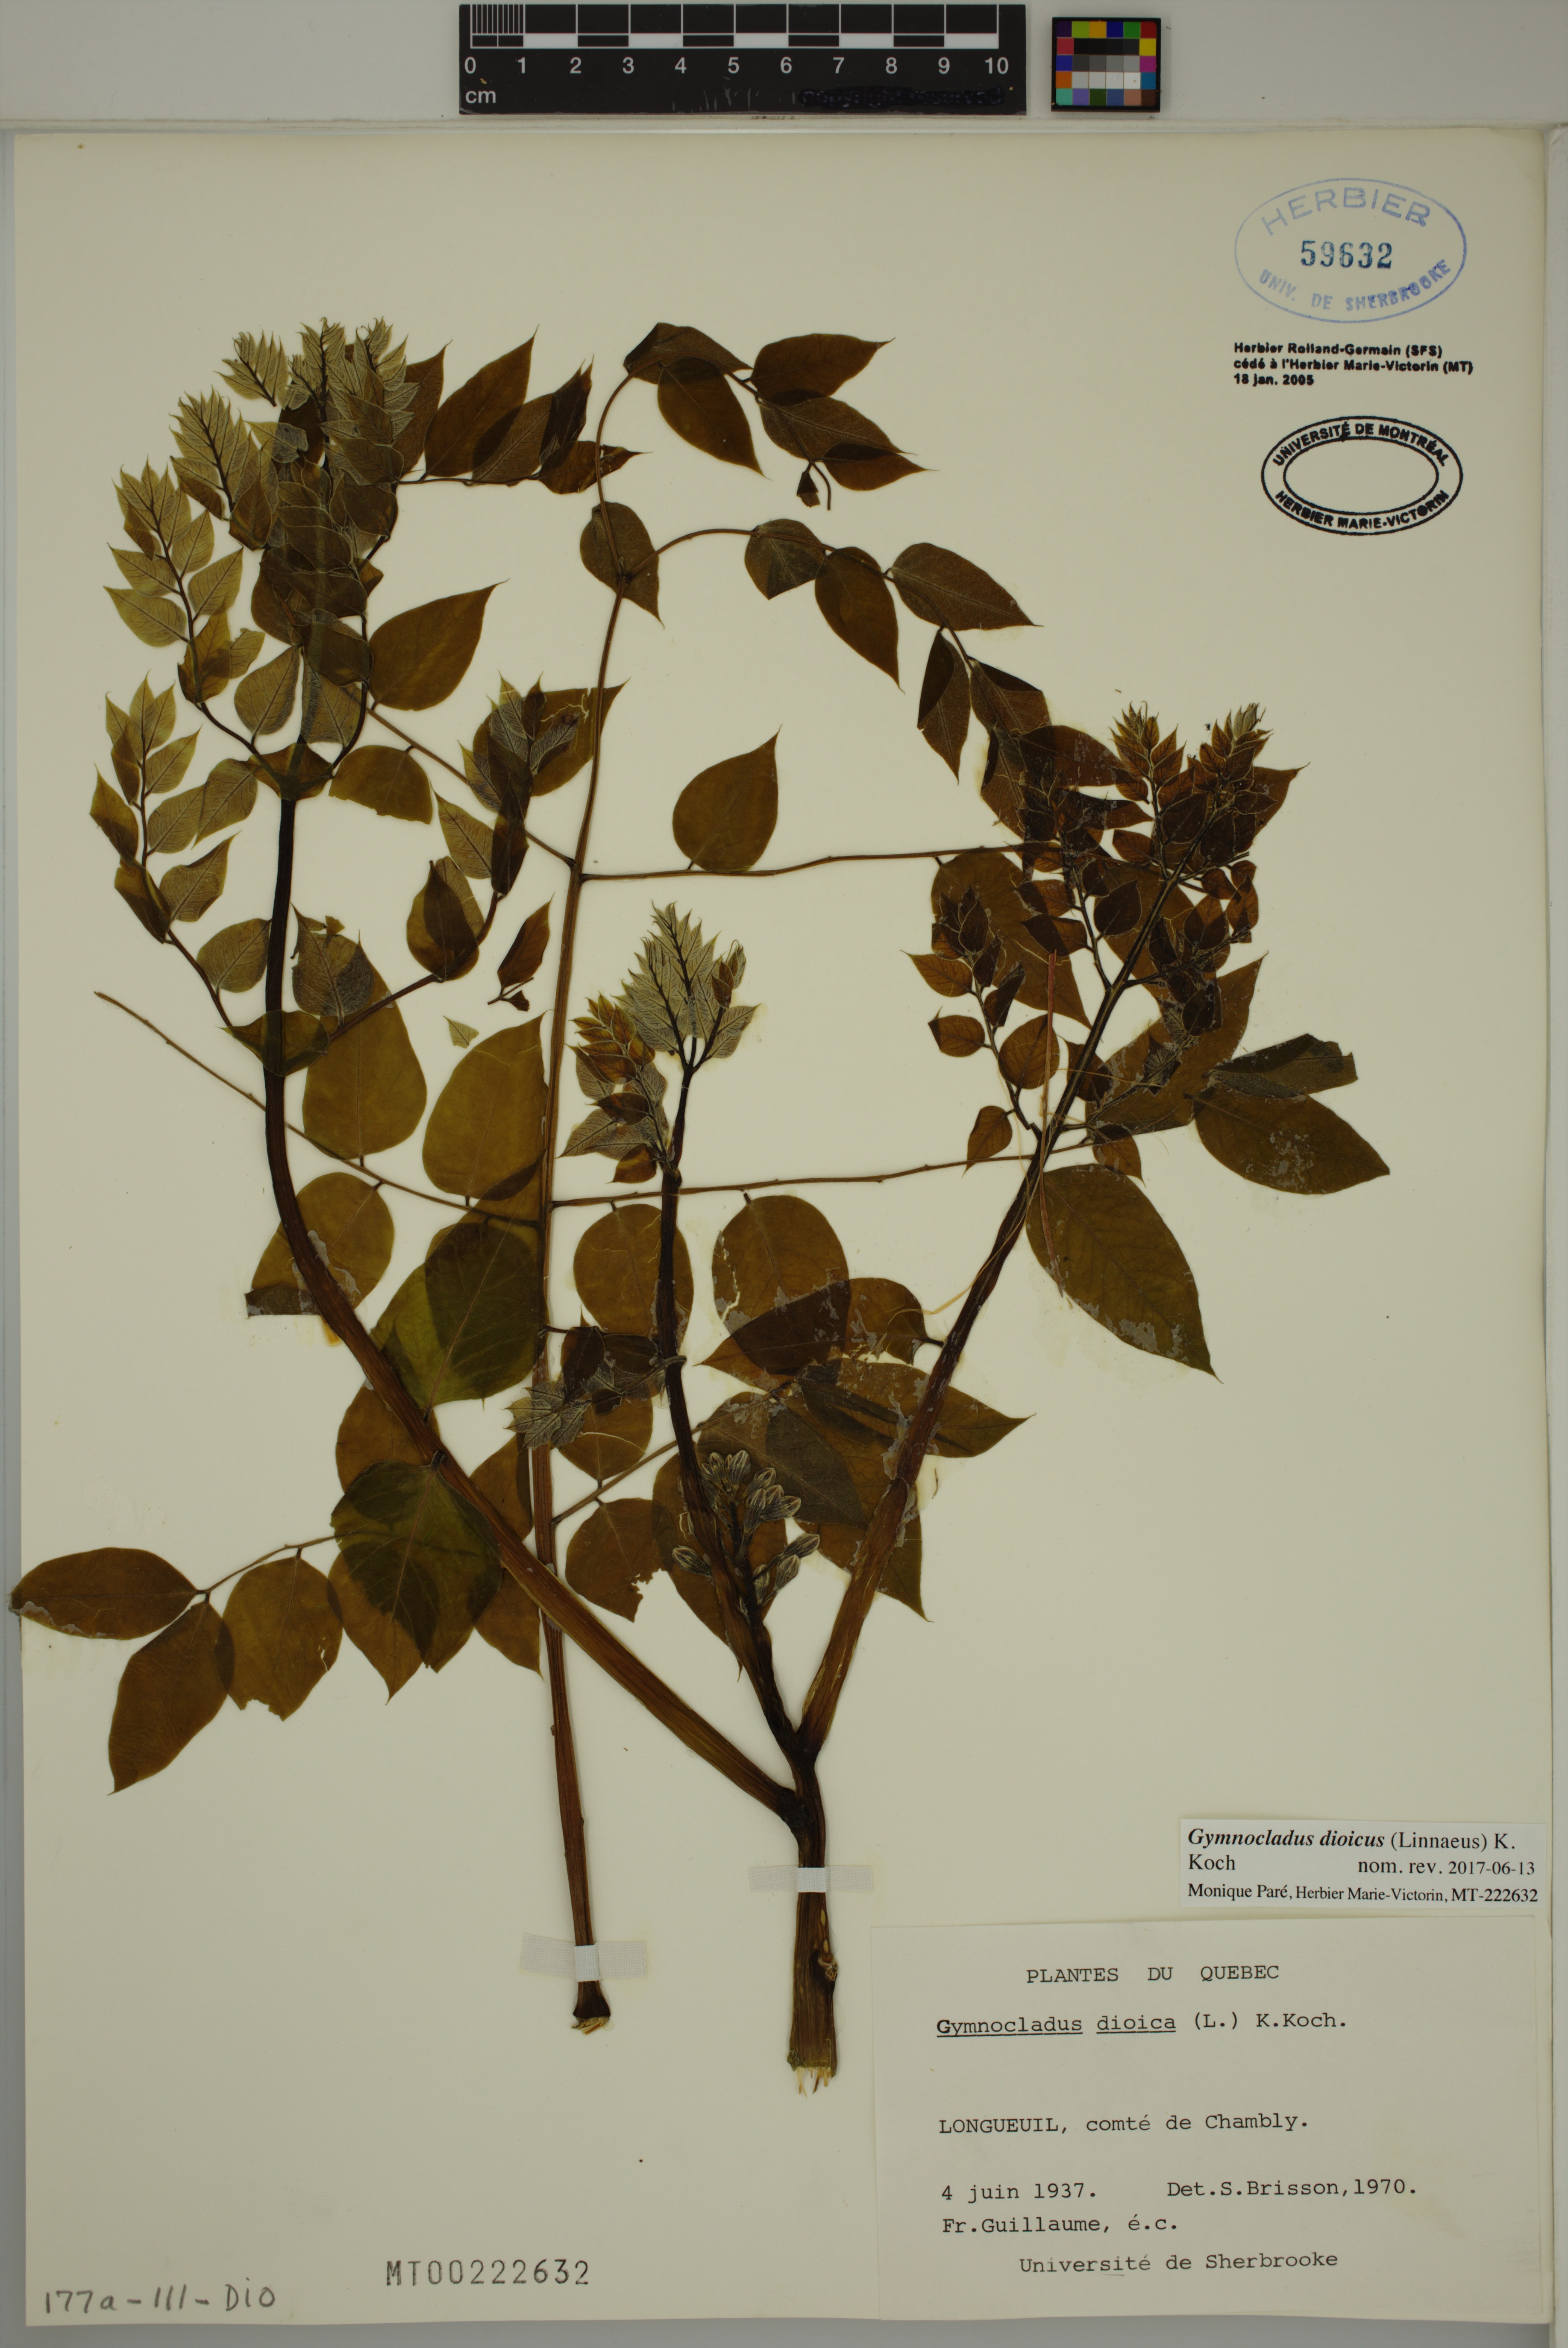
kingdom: Plantae
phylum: Tracheophyta
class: Magnoliopsida
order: Fabales
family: Fabaceae
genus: Gymnocladus
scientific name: Gymnocladus dioicus
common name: Kentucky coffee-tree
